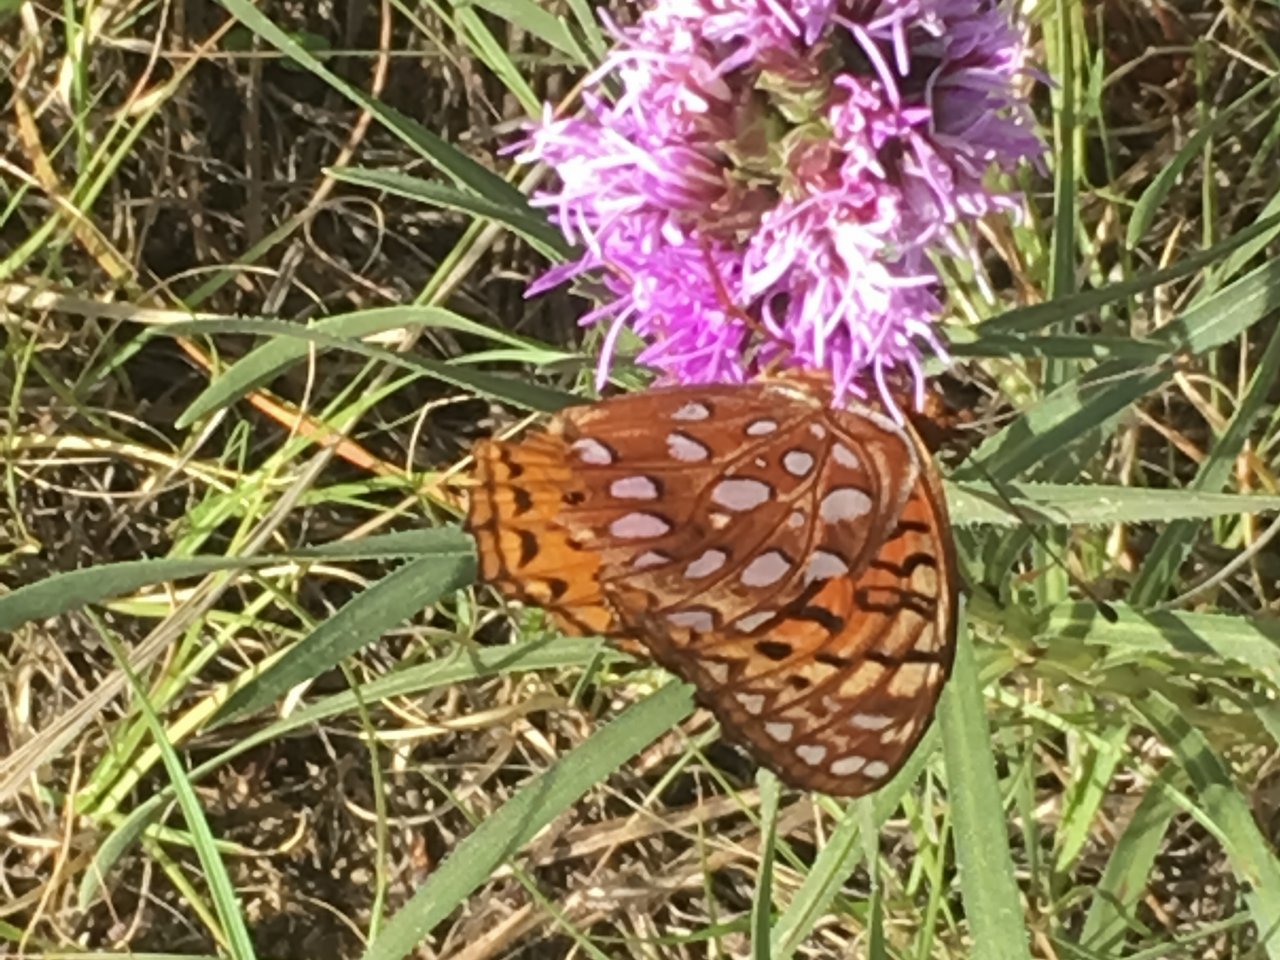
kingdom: Animalia
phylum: Arthropoda
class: Insecta
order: Lepidoptera
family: Nymphalidae
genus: Speyeria
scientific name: Speyeria aphrodite
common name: Aphrodite Fritillary
